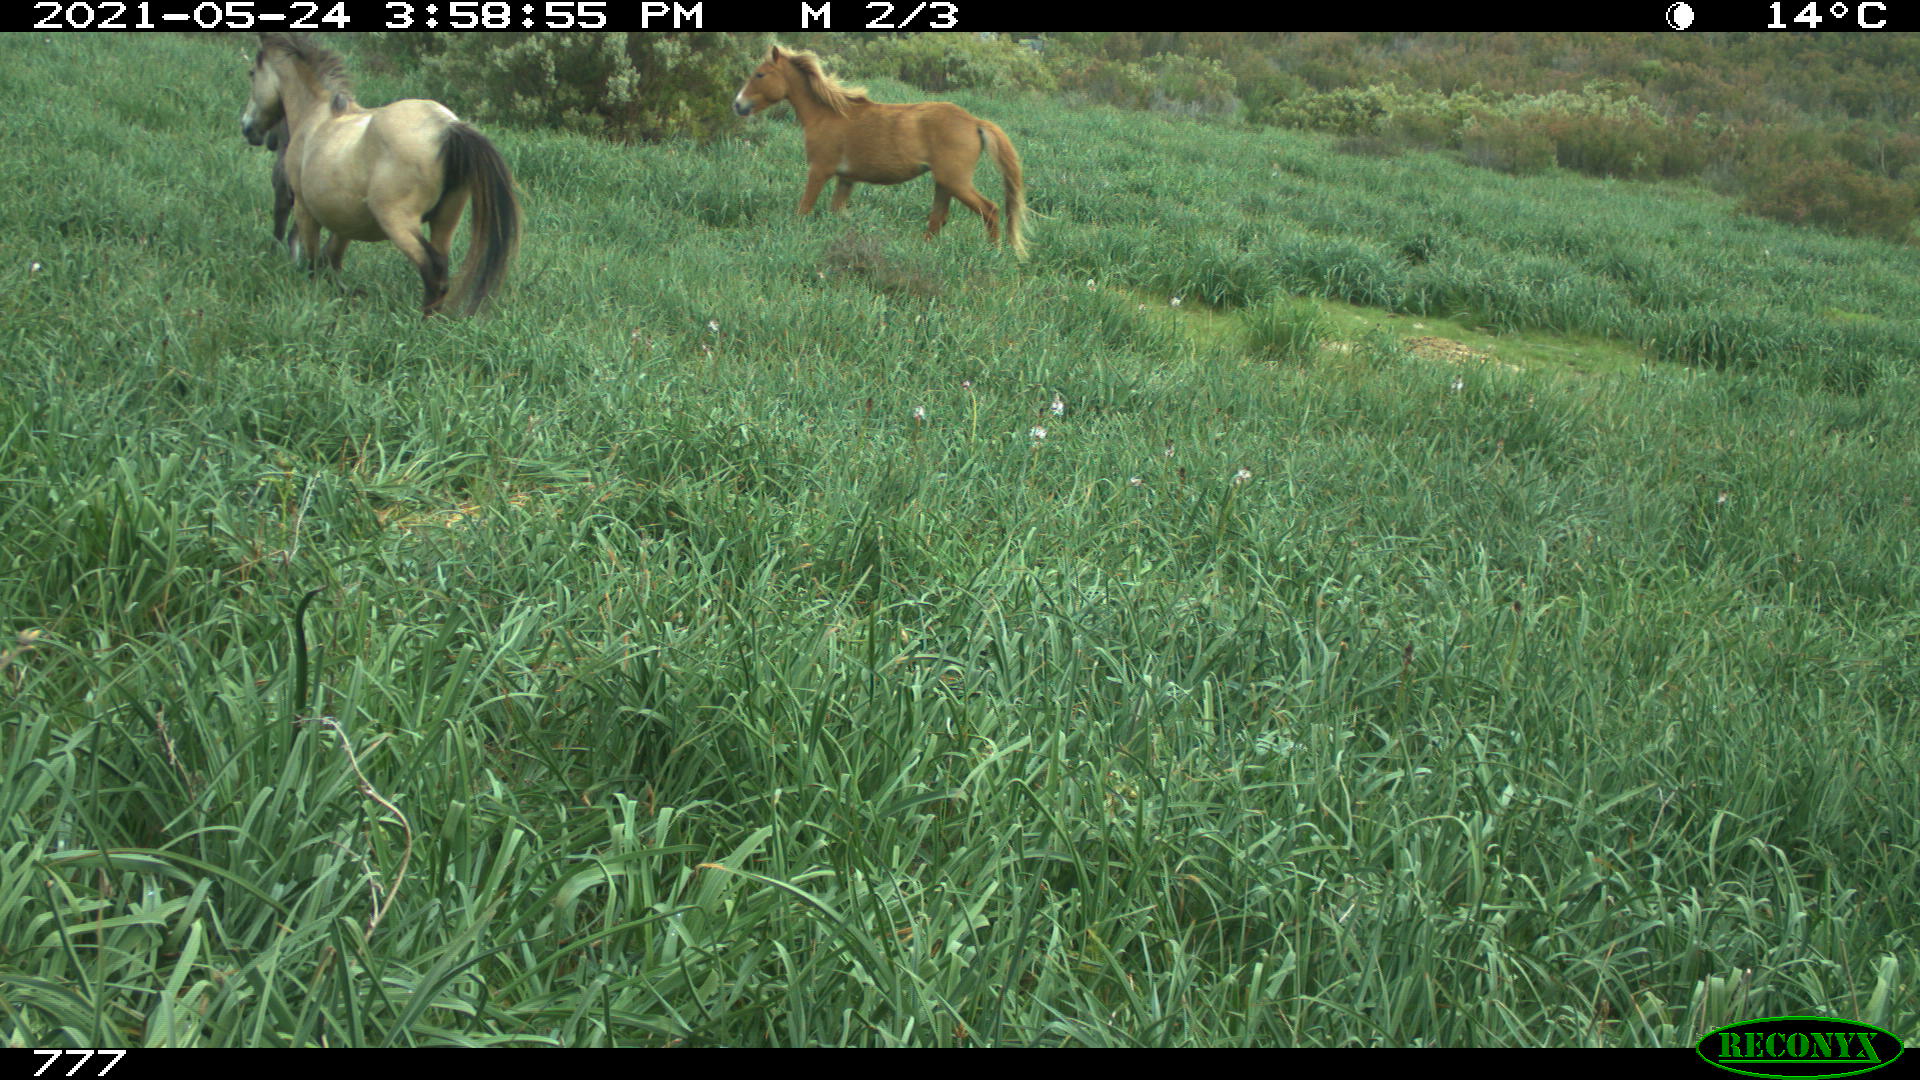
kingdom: Animalia
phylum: Chordata
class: Mammalia
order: Perissodactyla
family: Equidae
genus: Equus
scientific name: Equus caballus
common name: Horse
